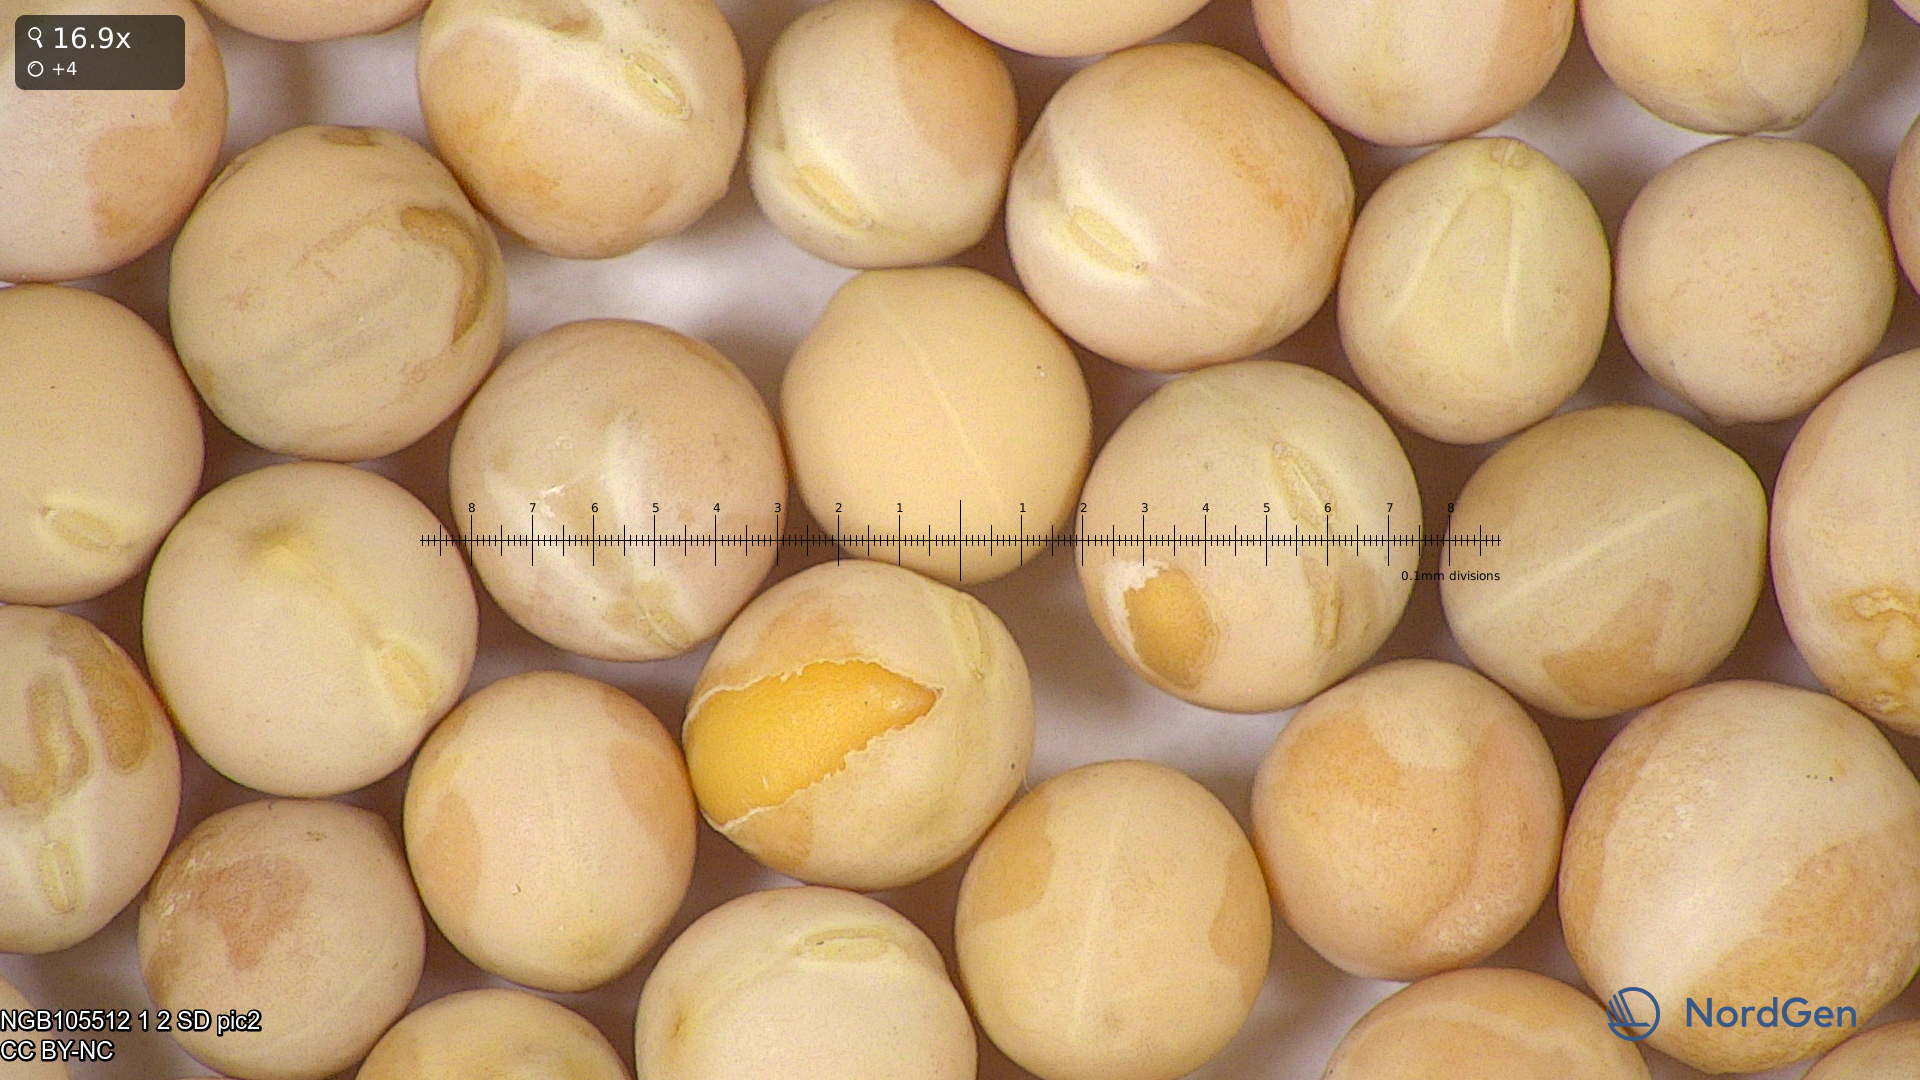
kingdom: Plantae
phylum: Tracheophyta
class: Magnoliopsida
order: Fabales
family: Fabaceae
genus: Lathyrus
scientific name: Lathyrus oleraceus
